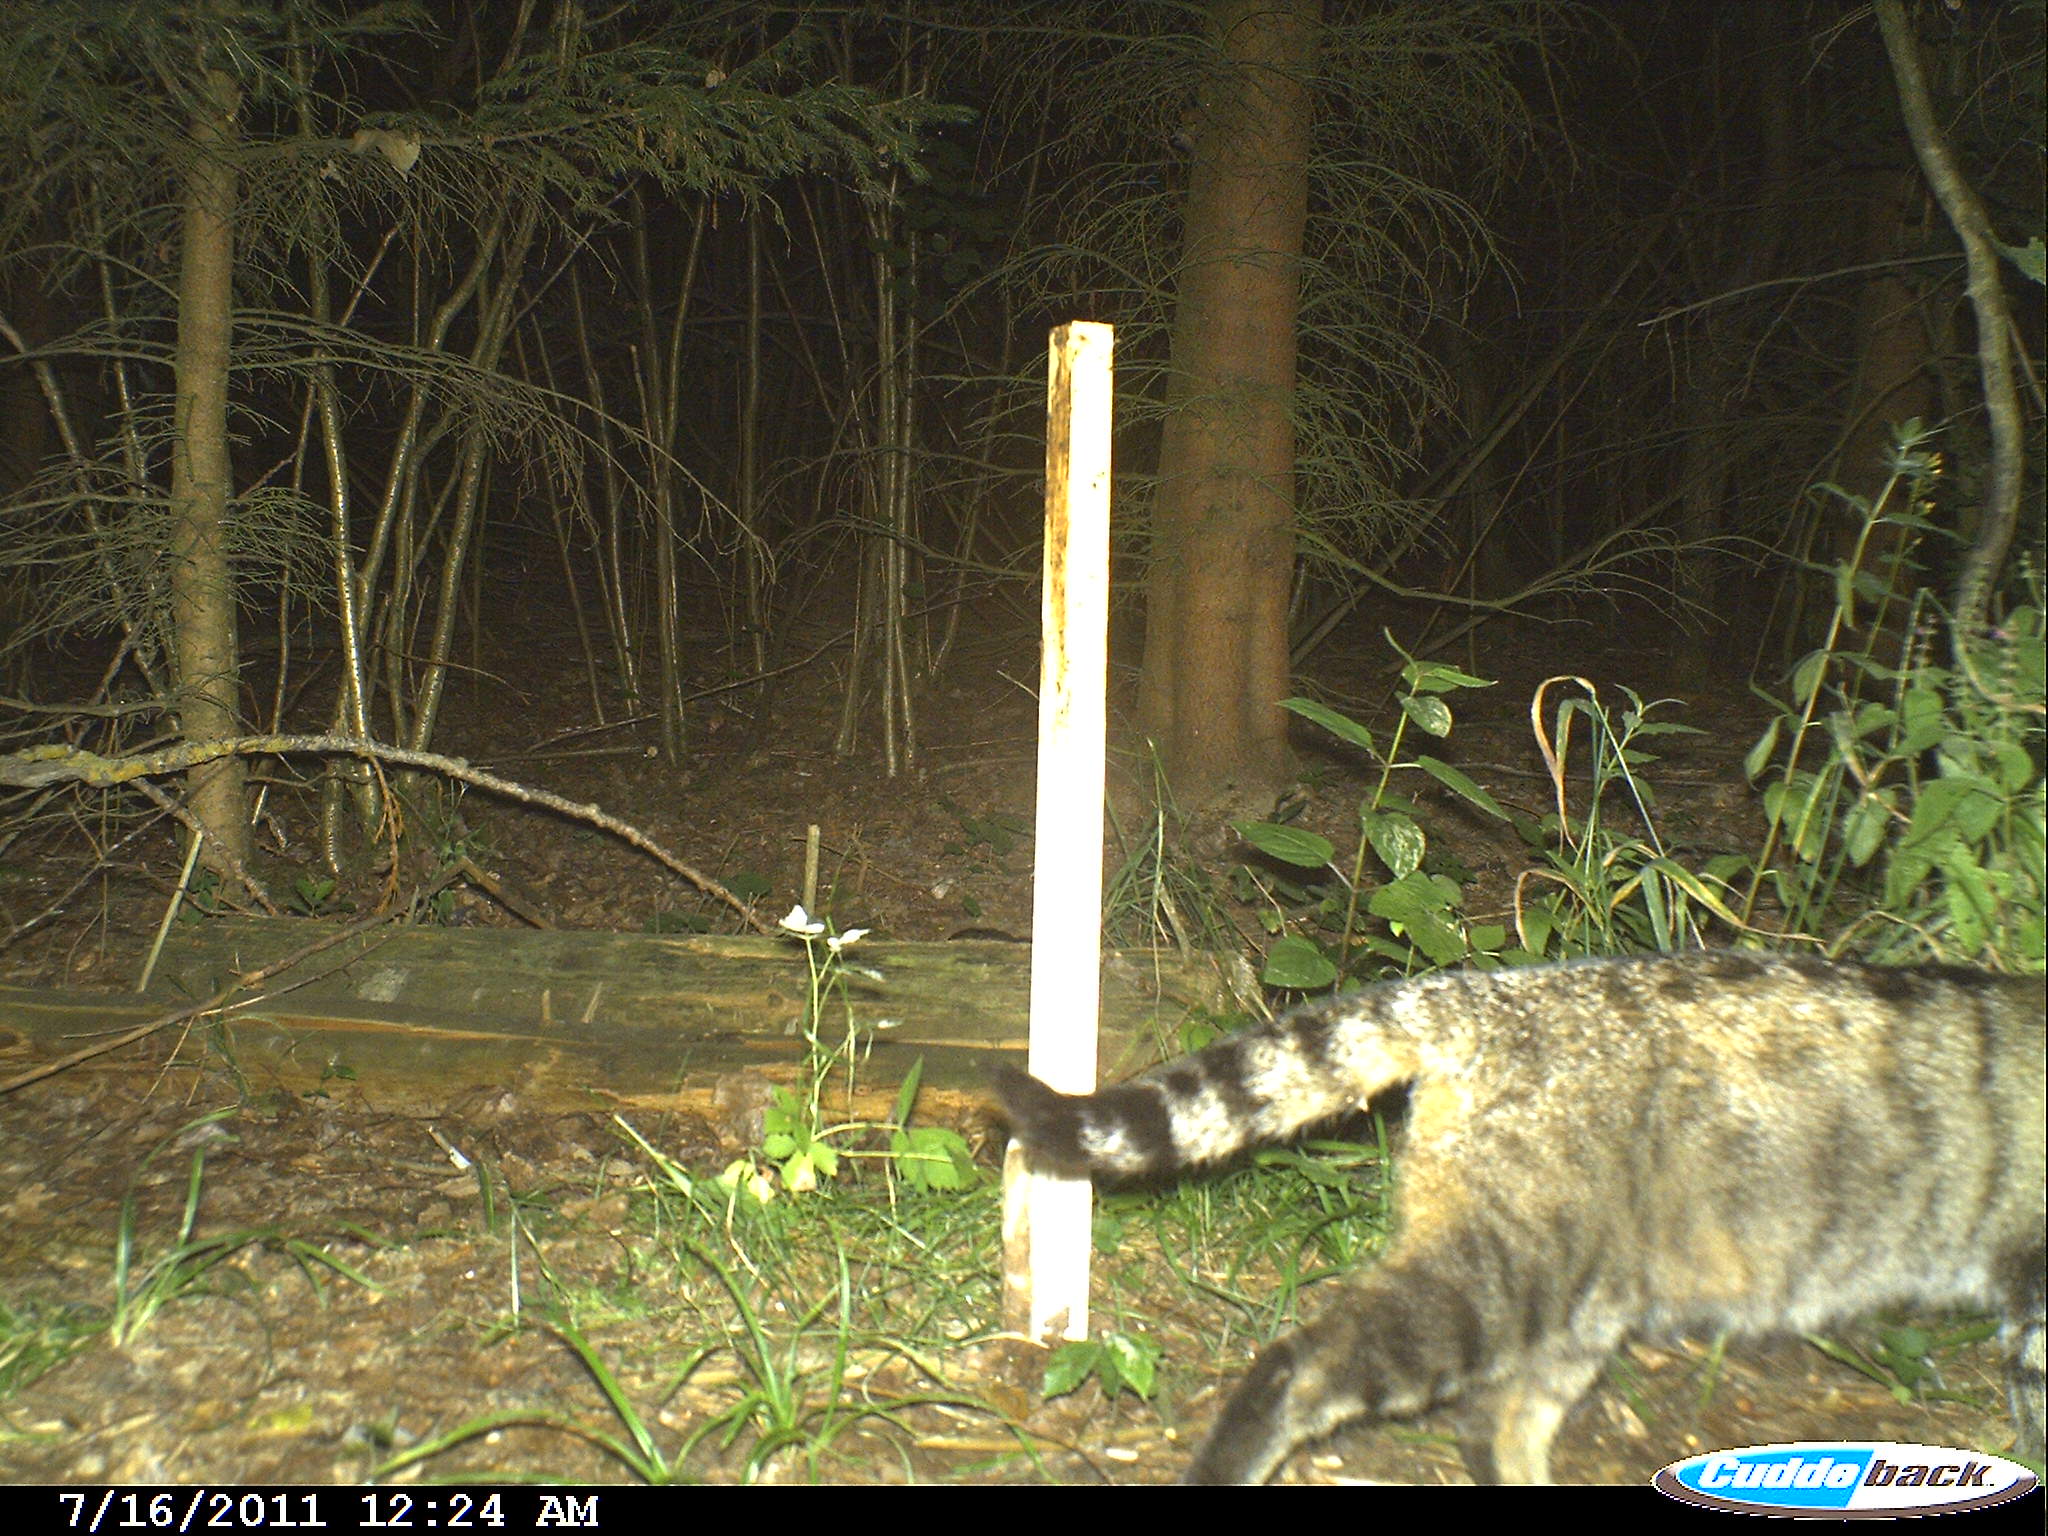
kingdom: Animalia
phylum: Chordata
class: Mammalia
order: Carnivora
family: Felidae
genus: Felis
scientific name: Felis silvestris
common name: Wildcat
